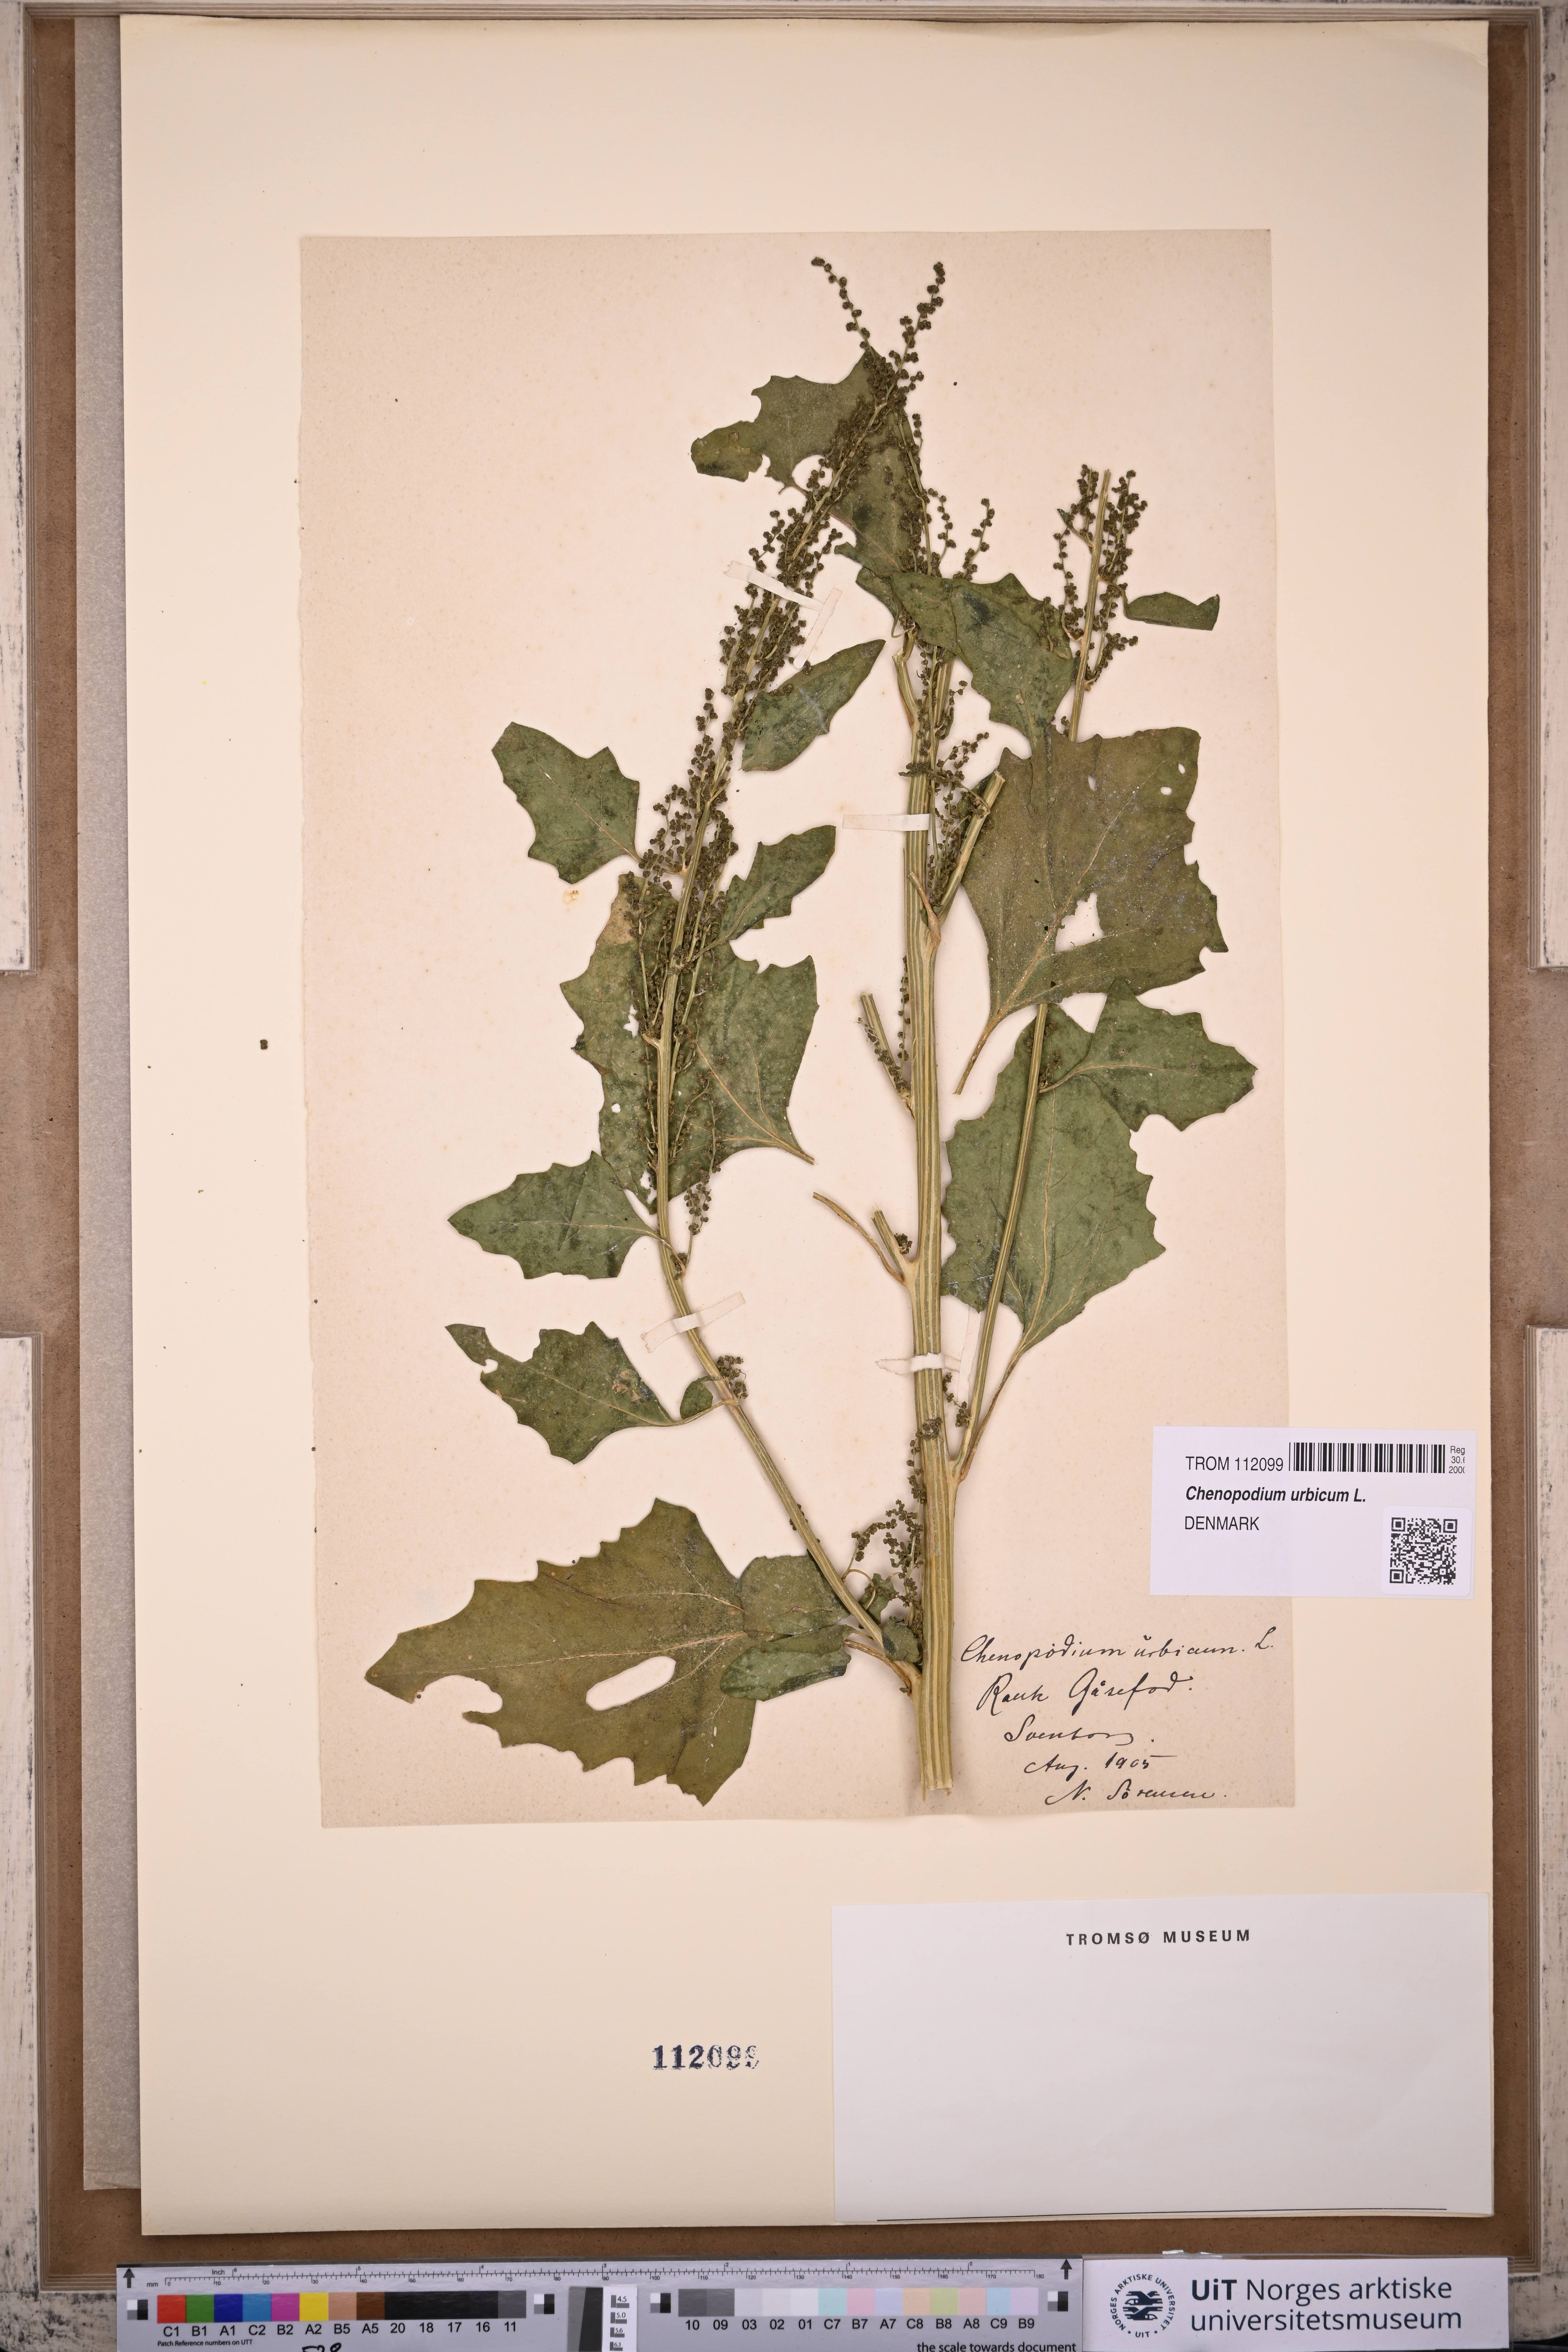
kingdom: Plantae
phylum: Tracheophyta
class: Magnoliopsida
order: Caryophyllales
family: Amaranthaceae
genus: Oxybasis
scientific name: Oxybasis urbica
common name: City goosefoot
